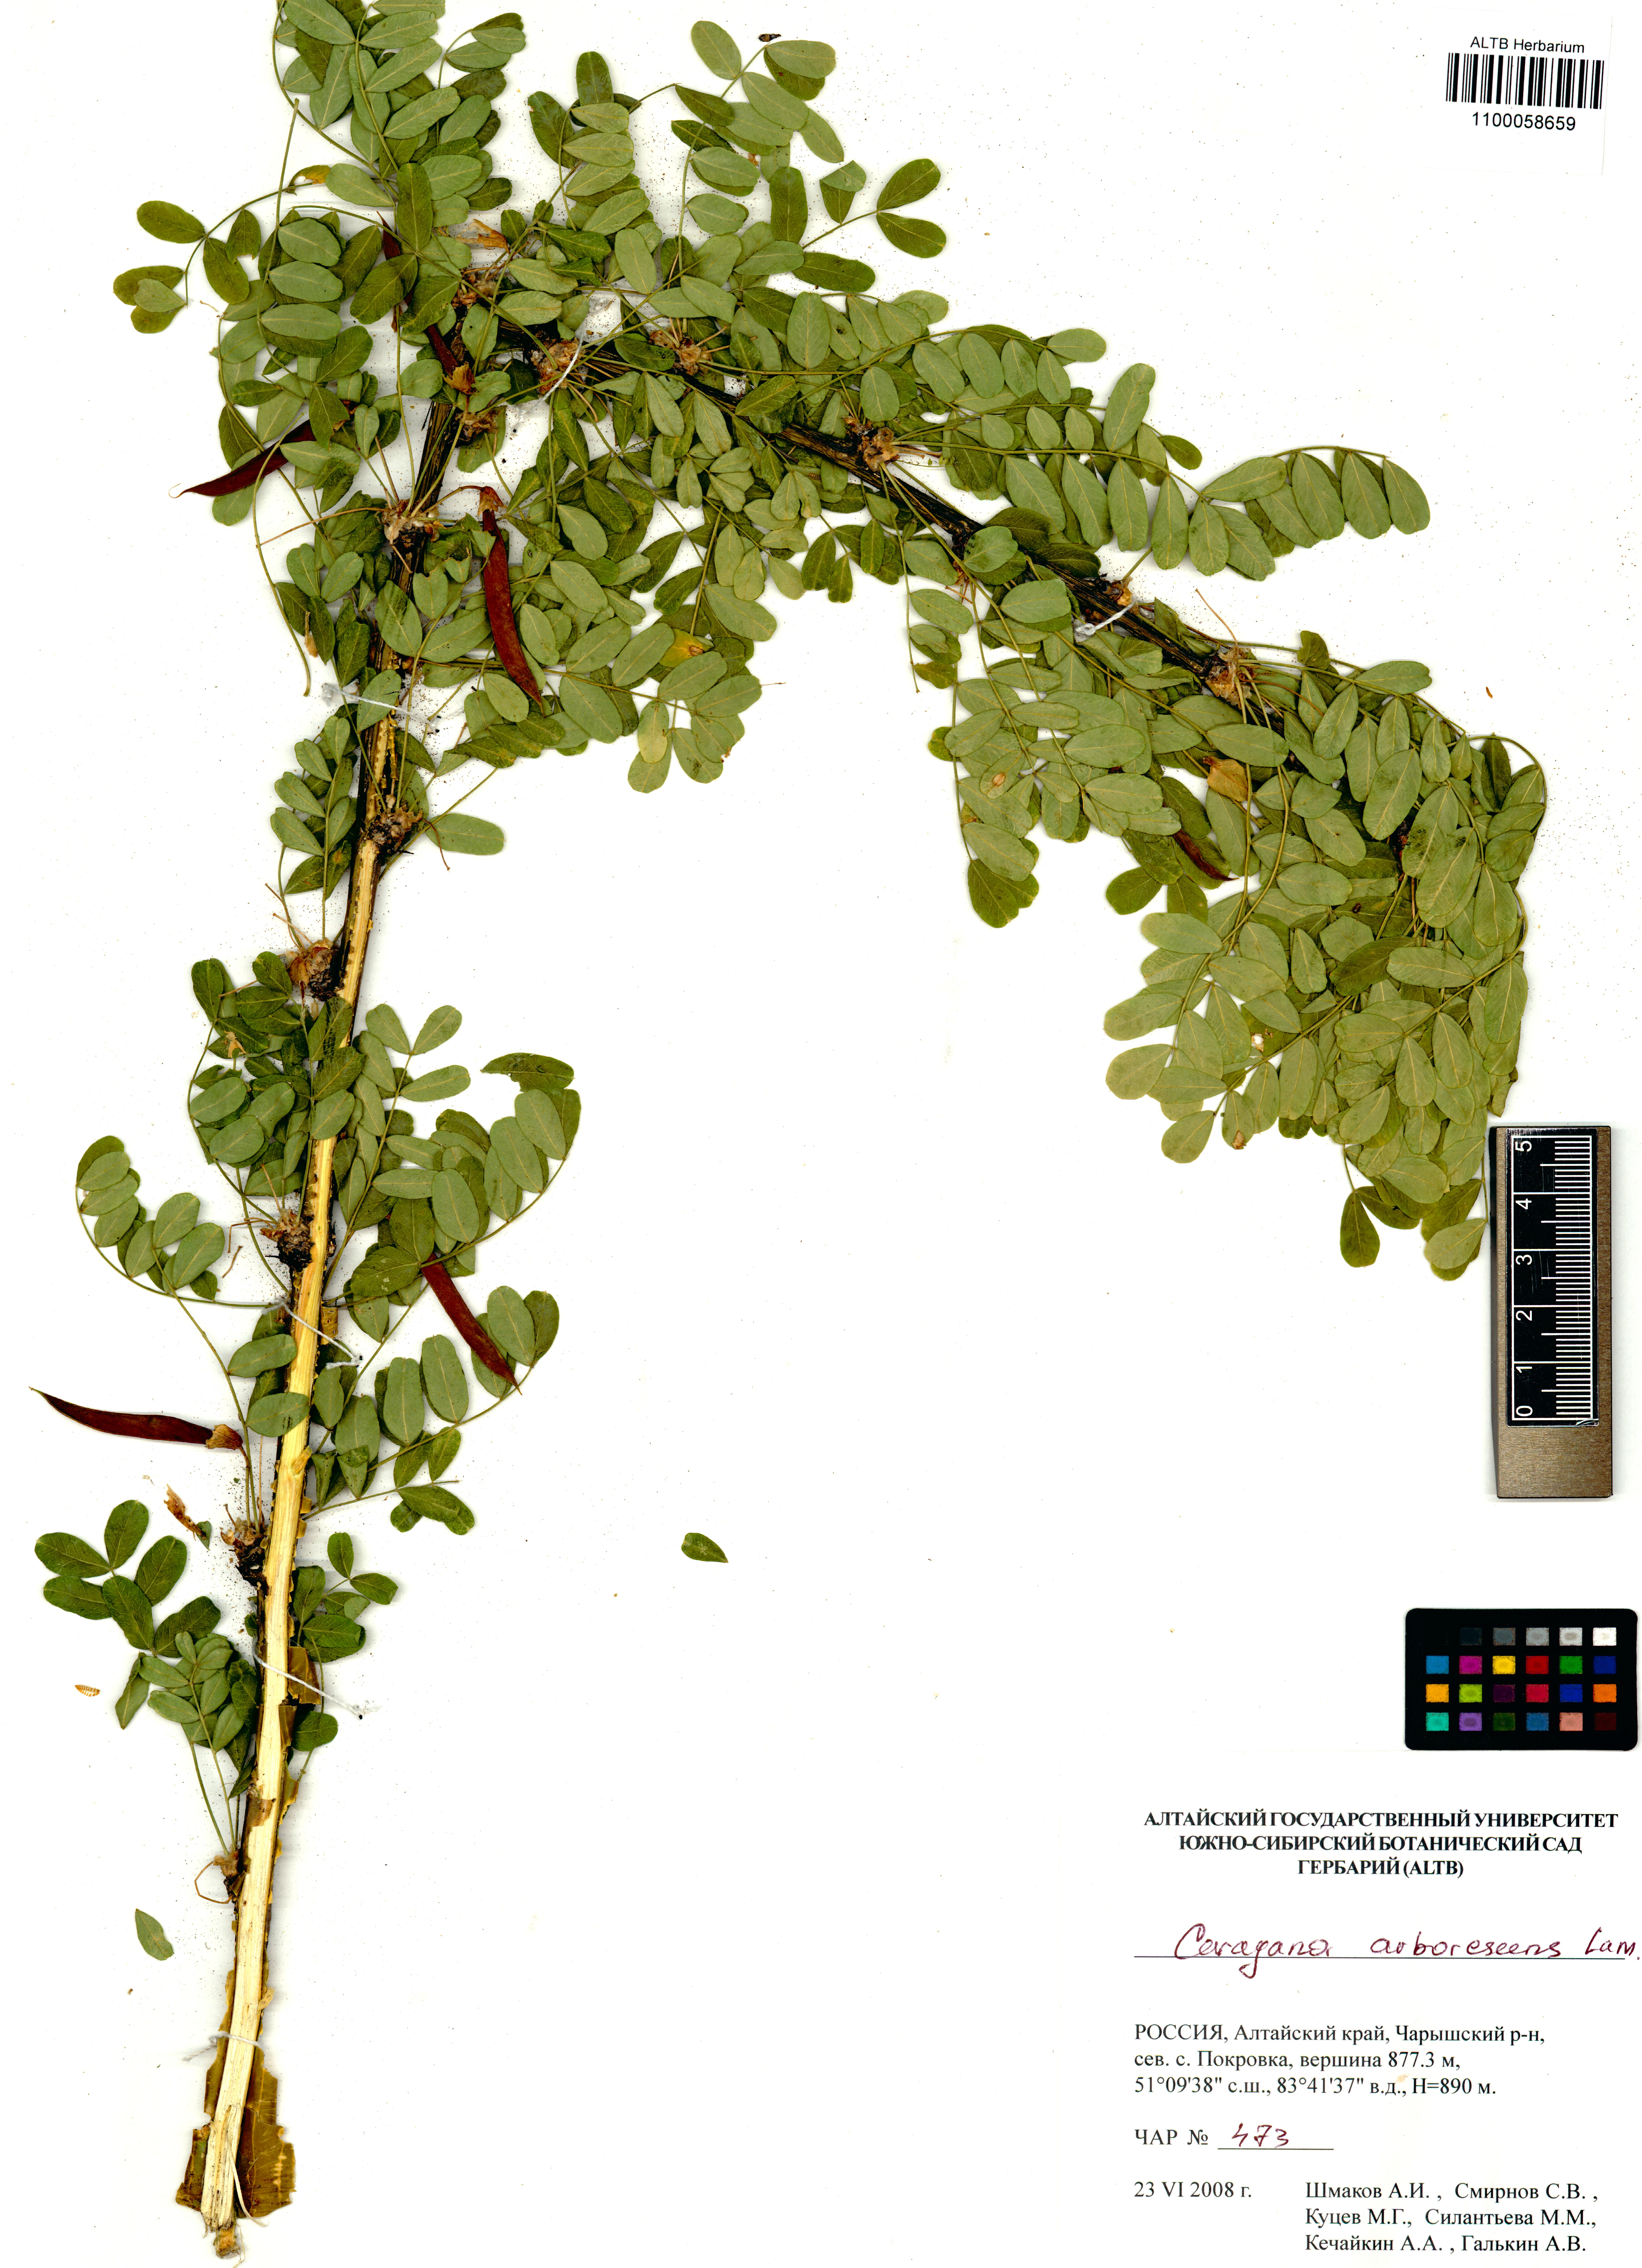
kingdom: Plantae
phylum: Tracheophyta
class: Magnoliopsida
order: Fabales
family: Fabaceae
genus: Caragana
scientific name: Caragana arborescens
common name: Siberian peashrub
